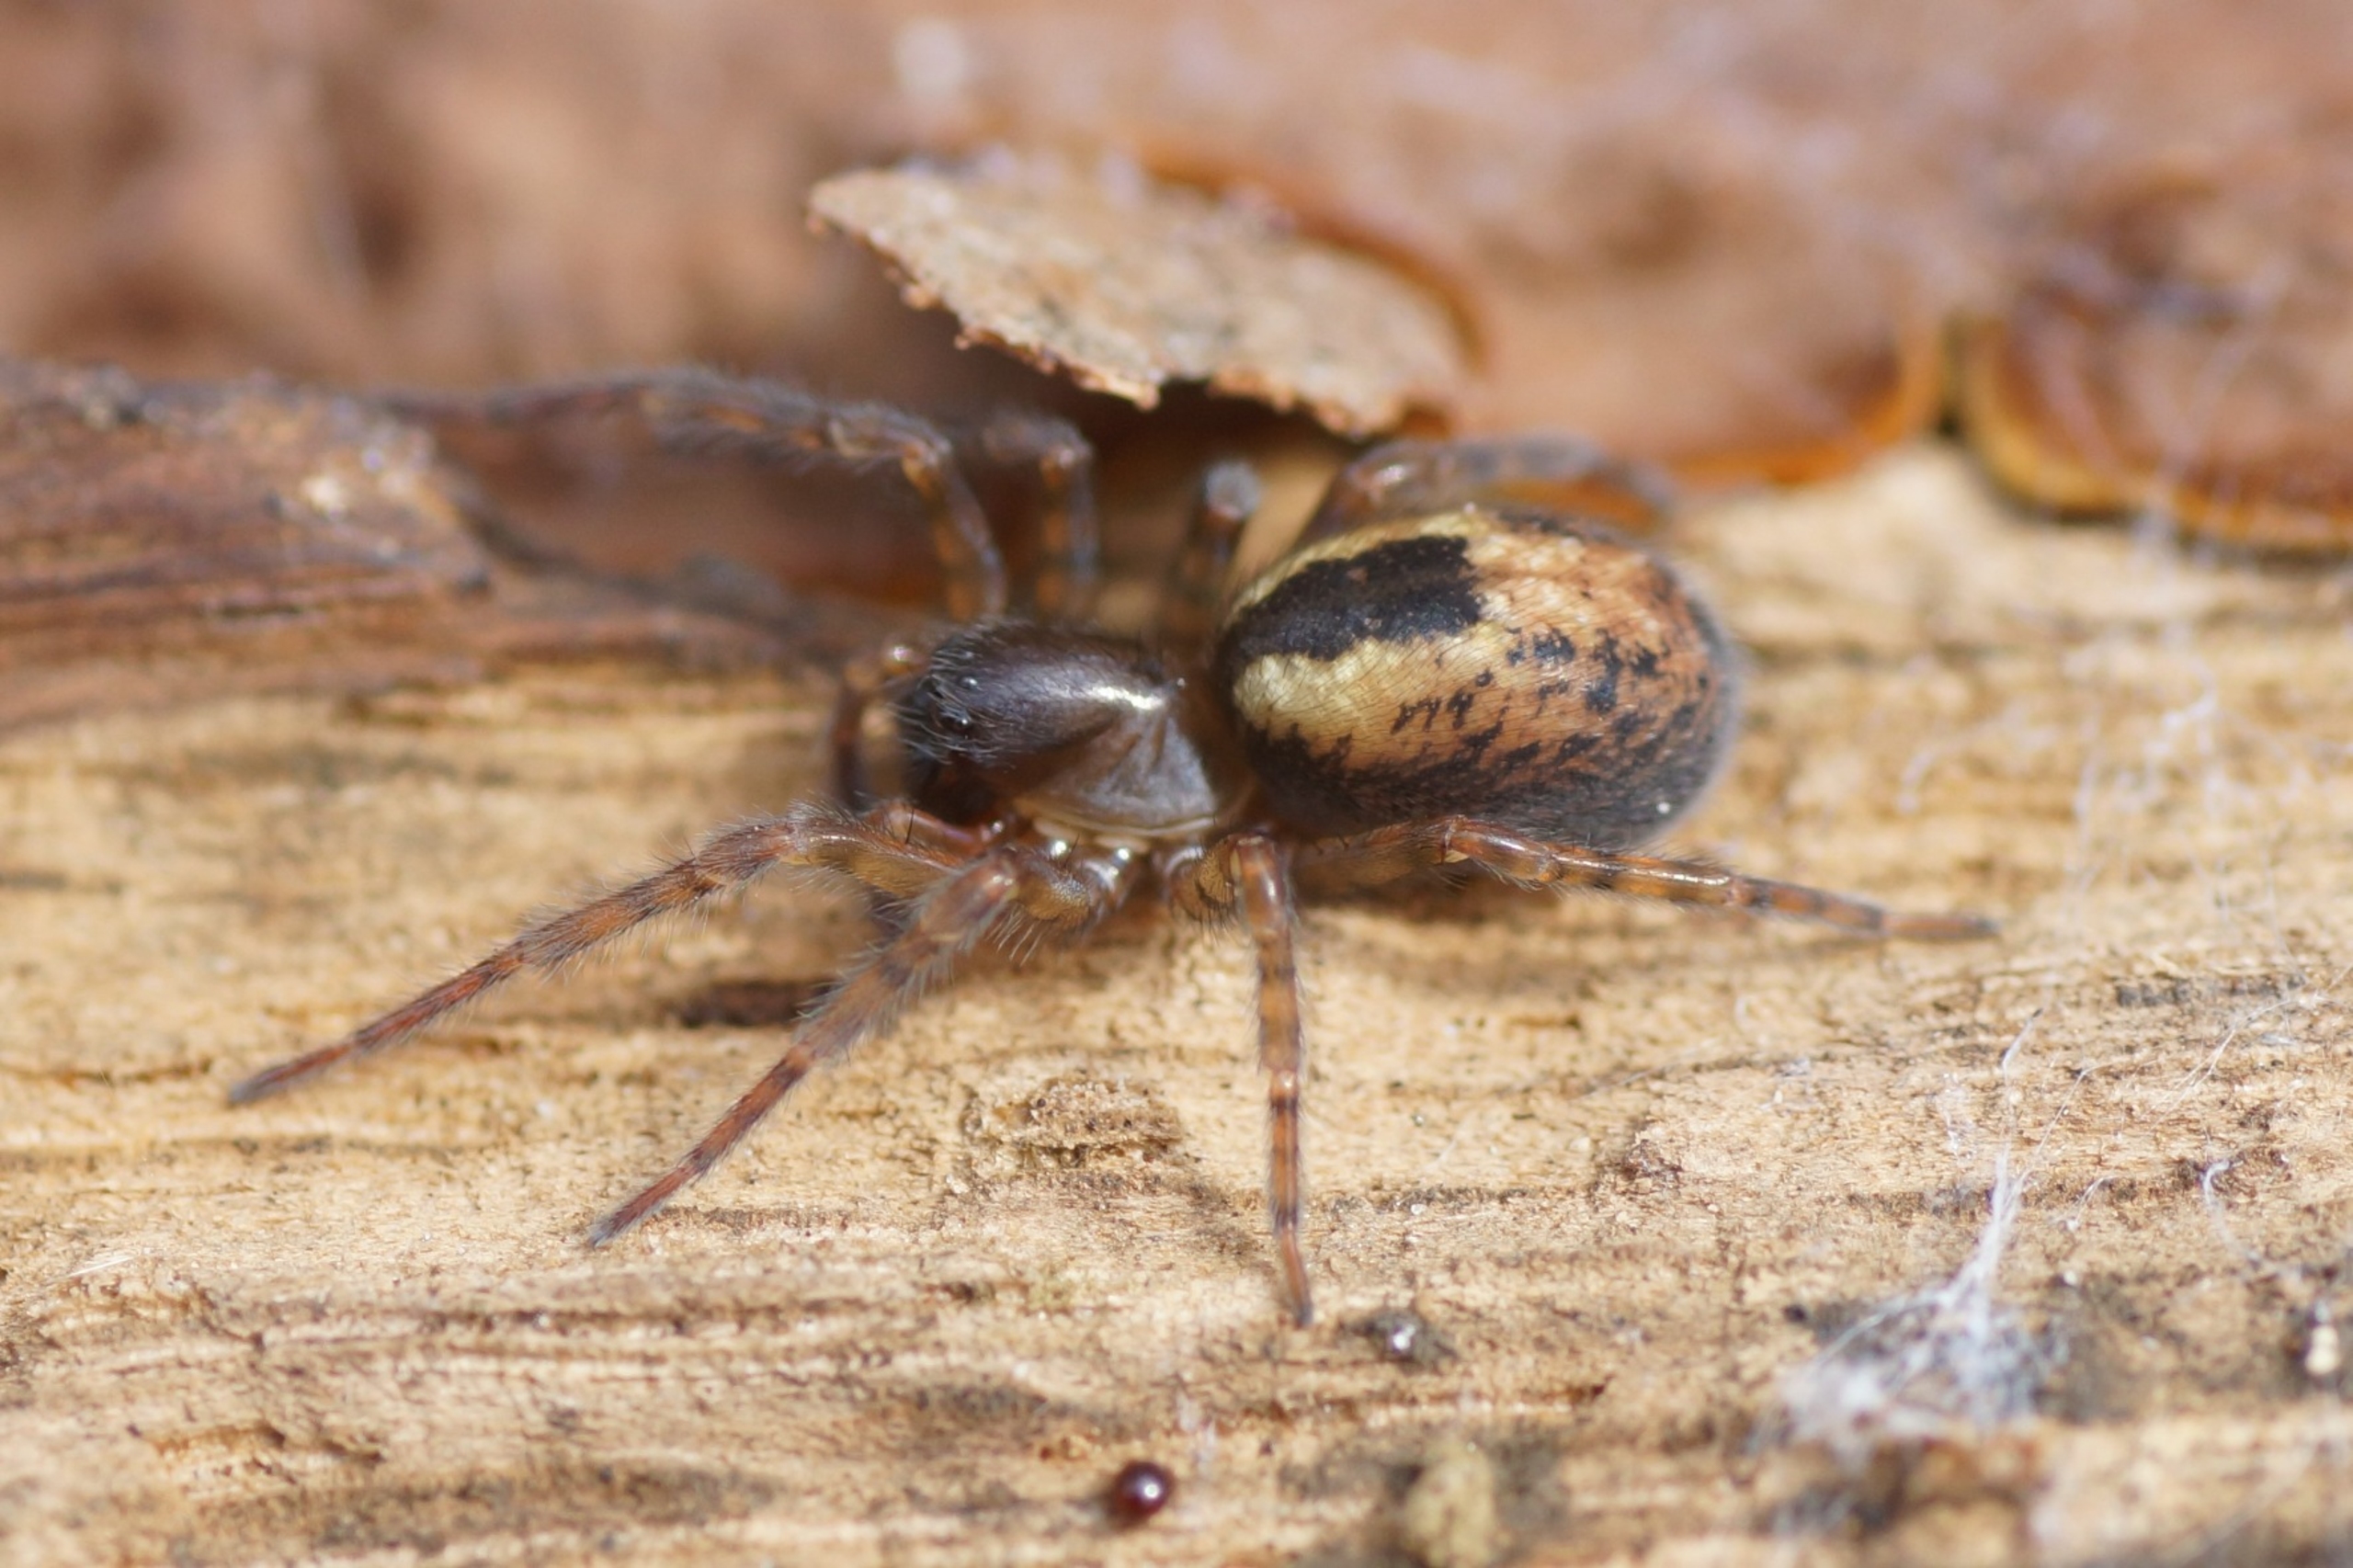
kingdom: Animalia
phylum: Arthropoda
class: Arachnida
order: Araneae
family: Amaurobiidae
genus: Amaurobius
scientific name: Amaurobius fenestralis
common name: Skovkartespinder
